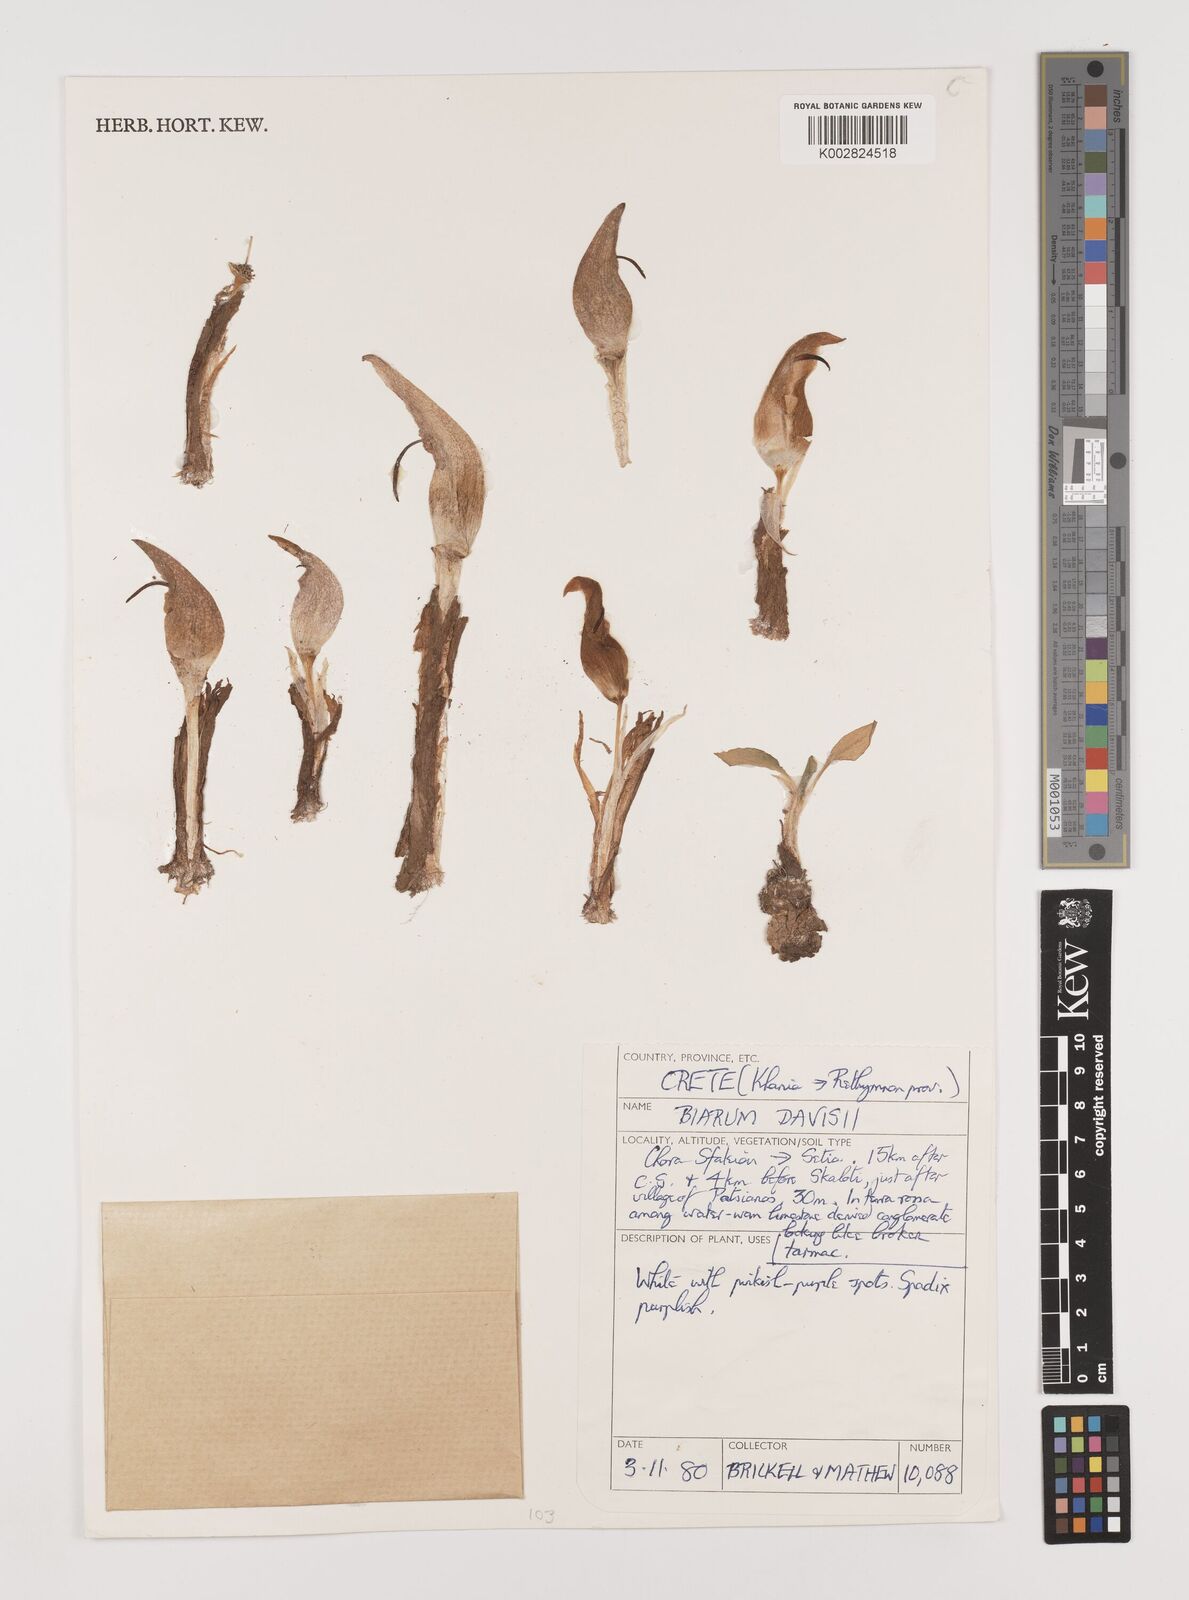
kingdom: Plantae
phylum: Tracheophyta
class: Liliopsida
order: Alismatales
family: Araceae
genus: Biarum
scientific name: Biarum davisii
